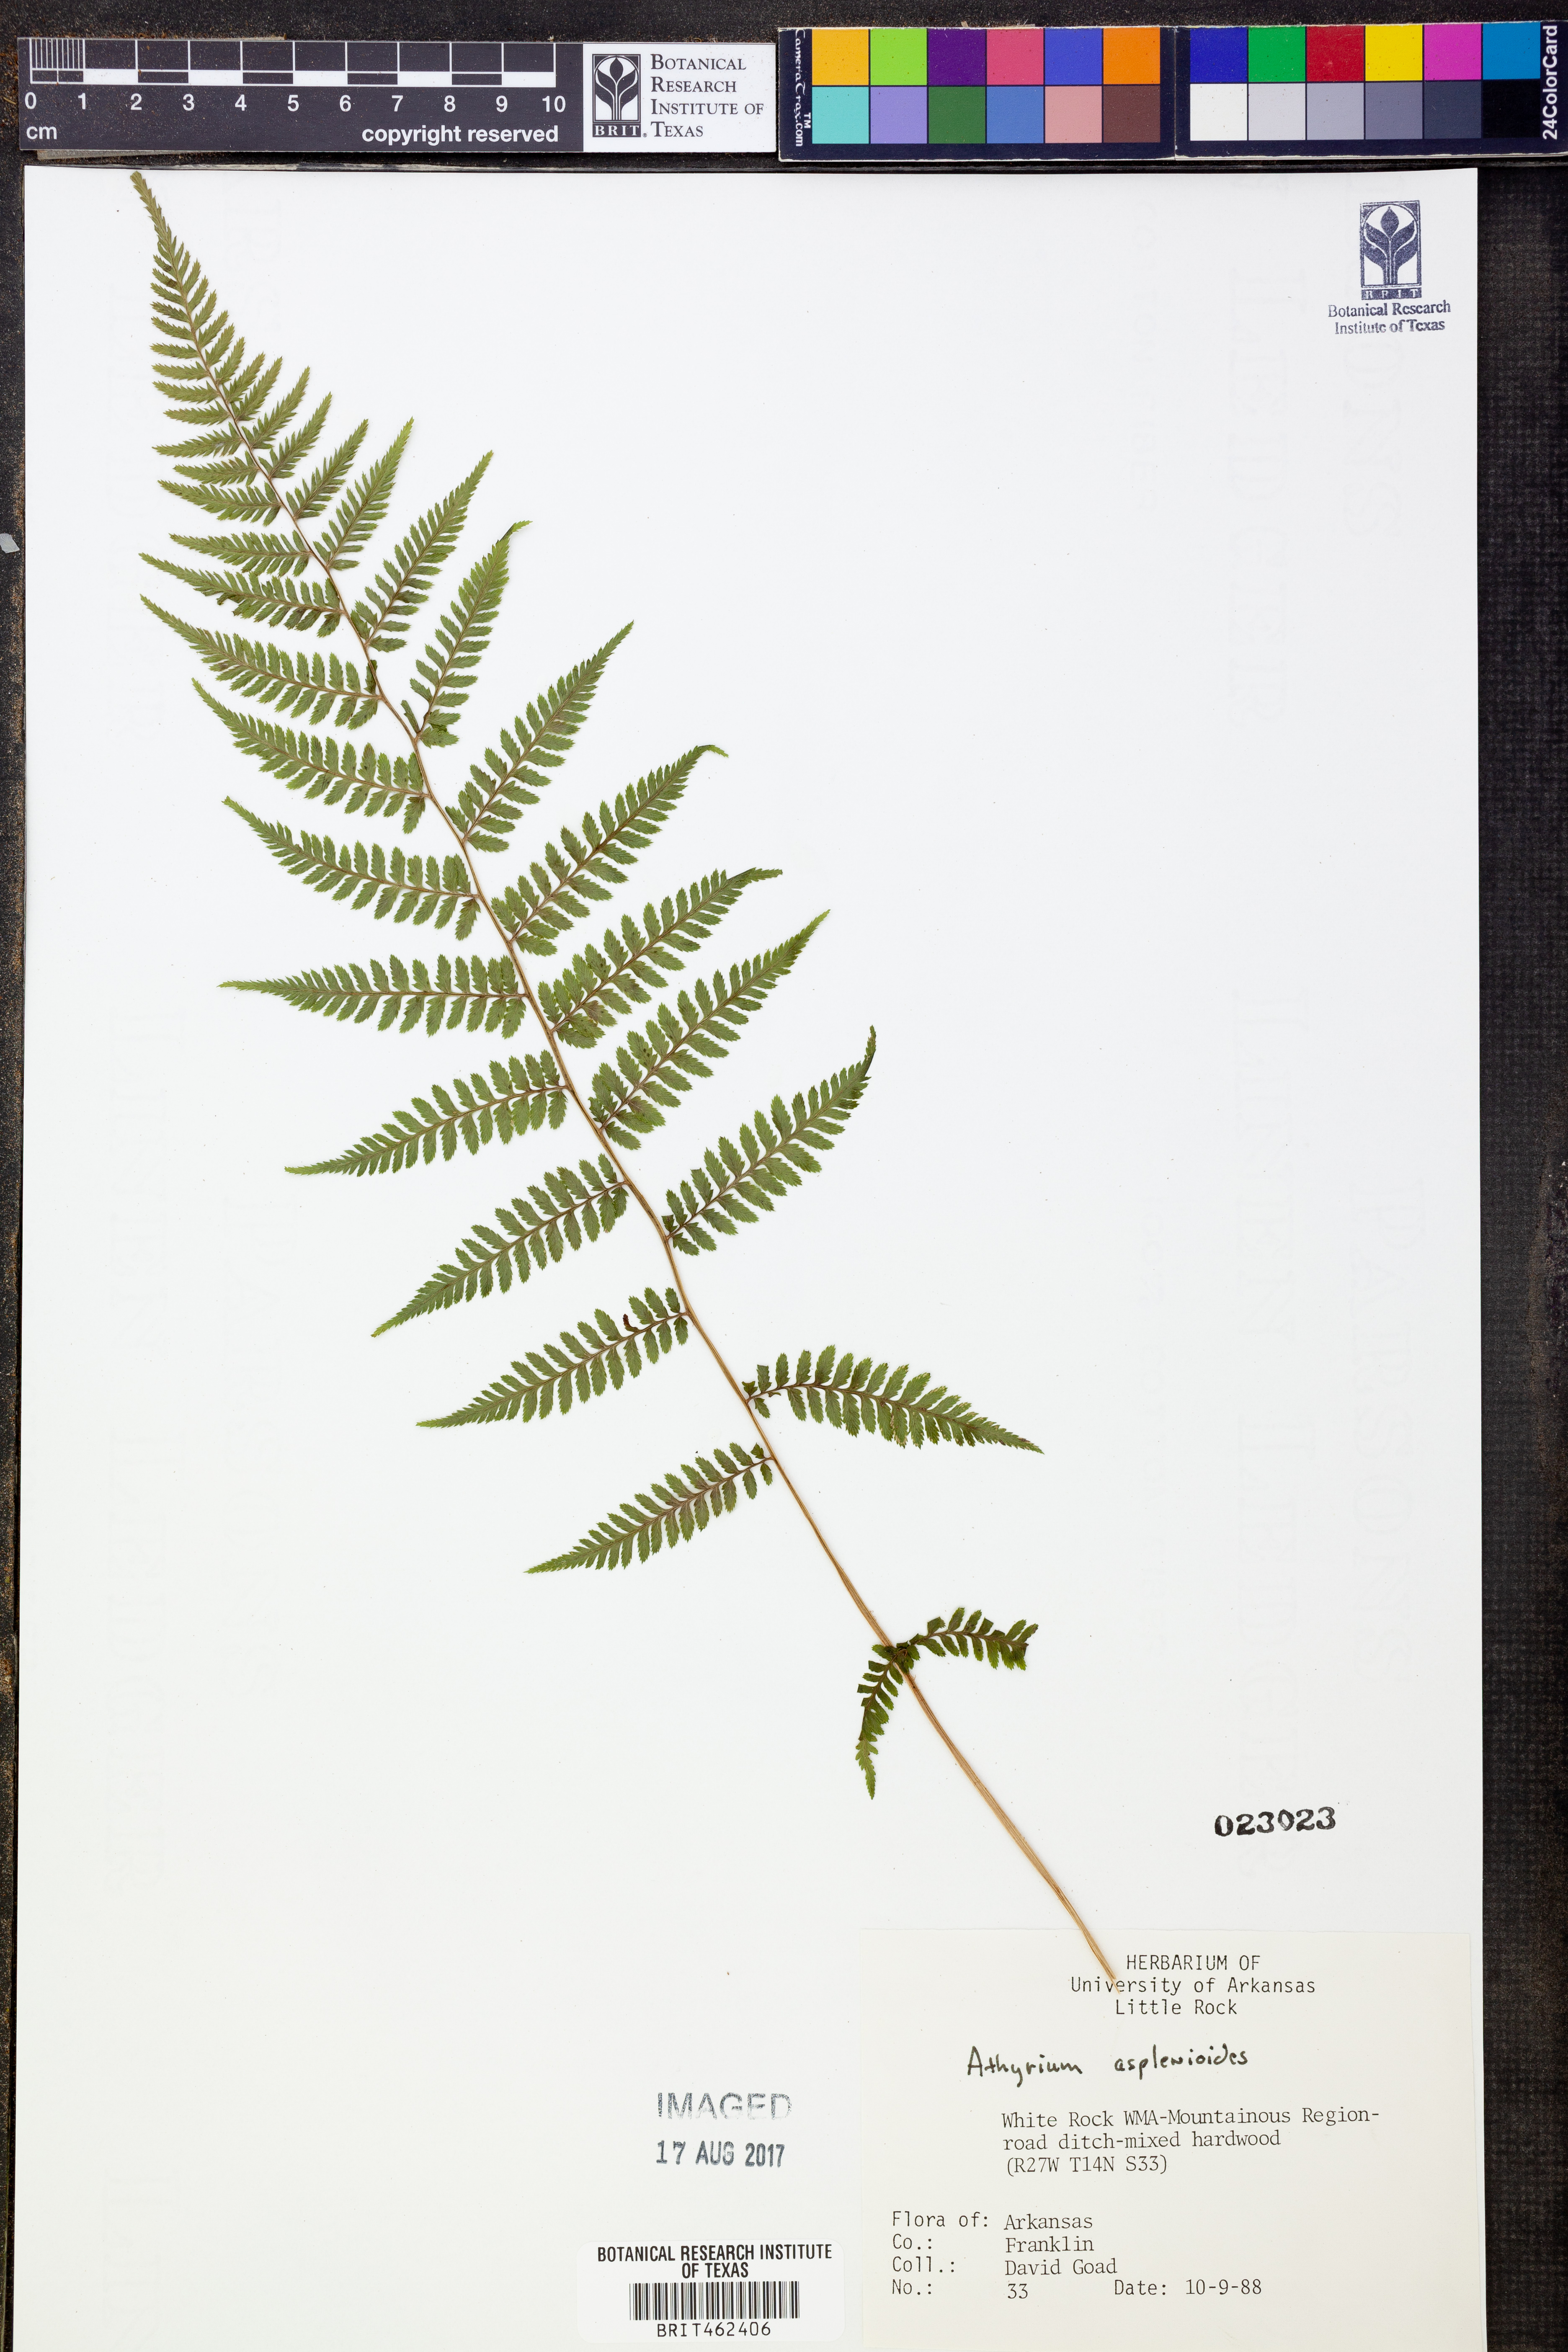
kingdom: Plantae
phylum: Tracheophyta
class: Polypodiopsida
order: Polypodiales
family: Athyriaceae
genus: Athyrium
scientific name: Athyrium asplenioides
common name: Southern lady fern
